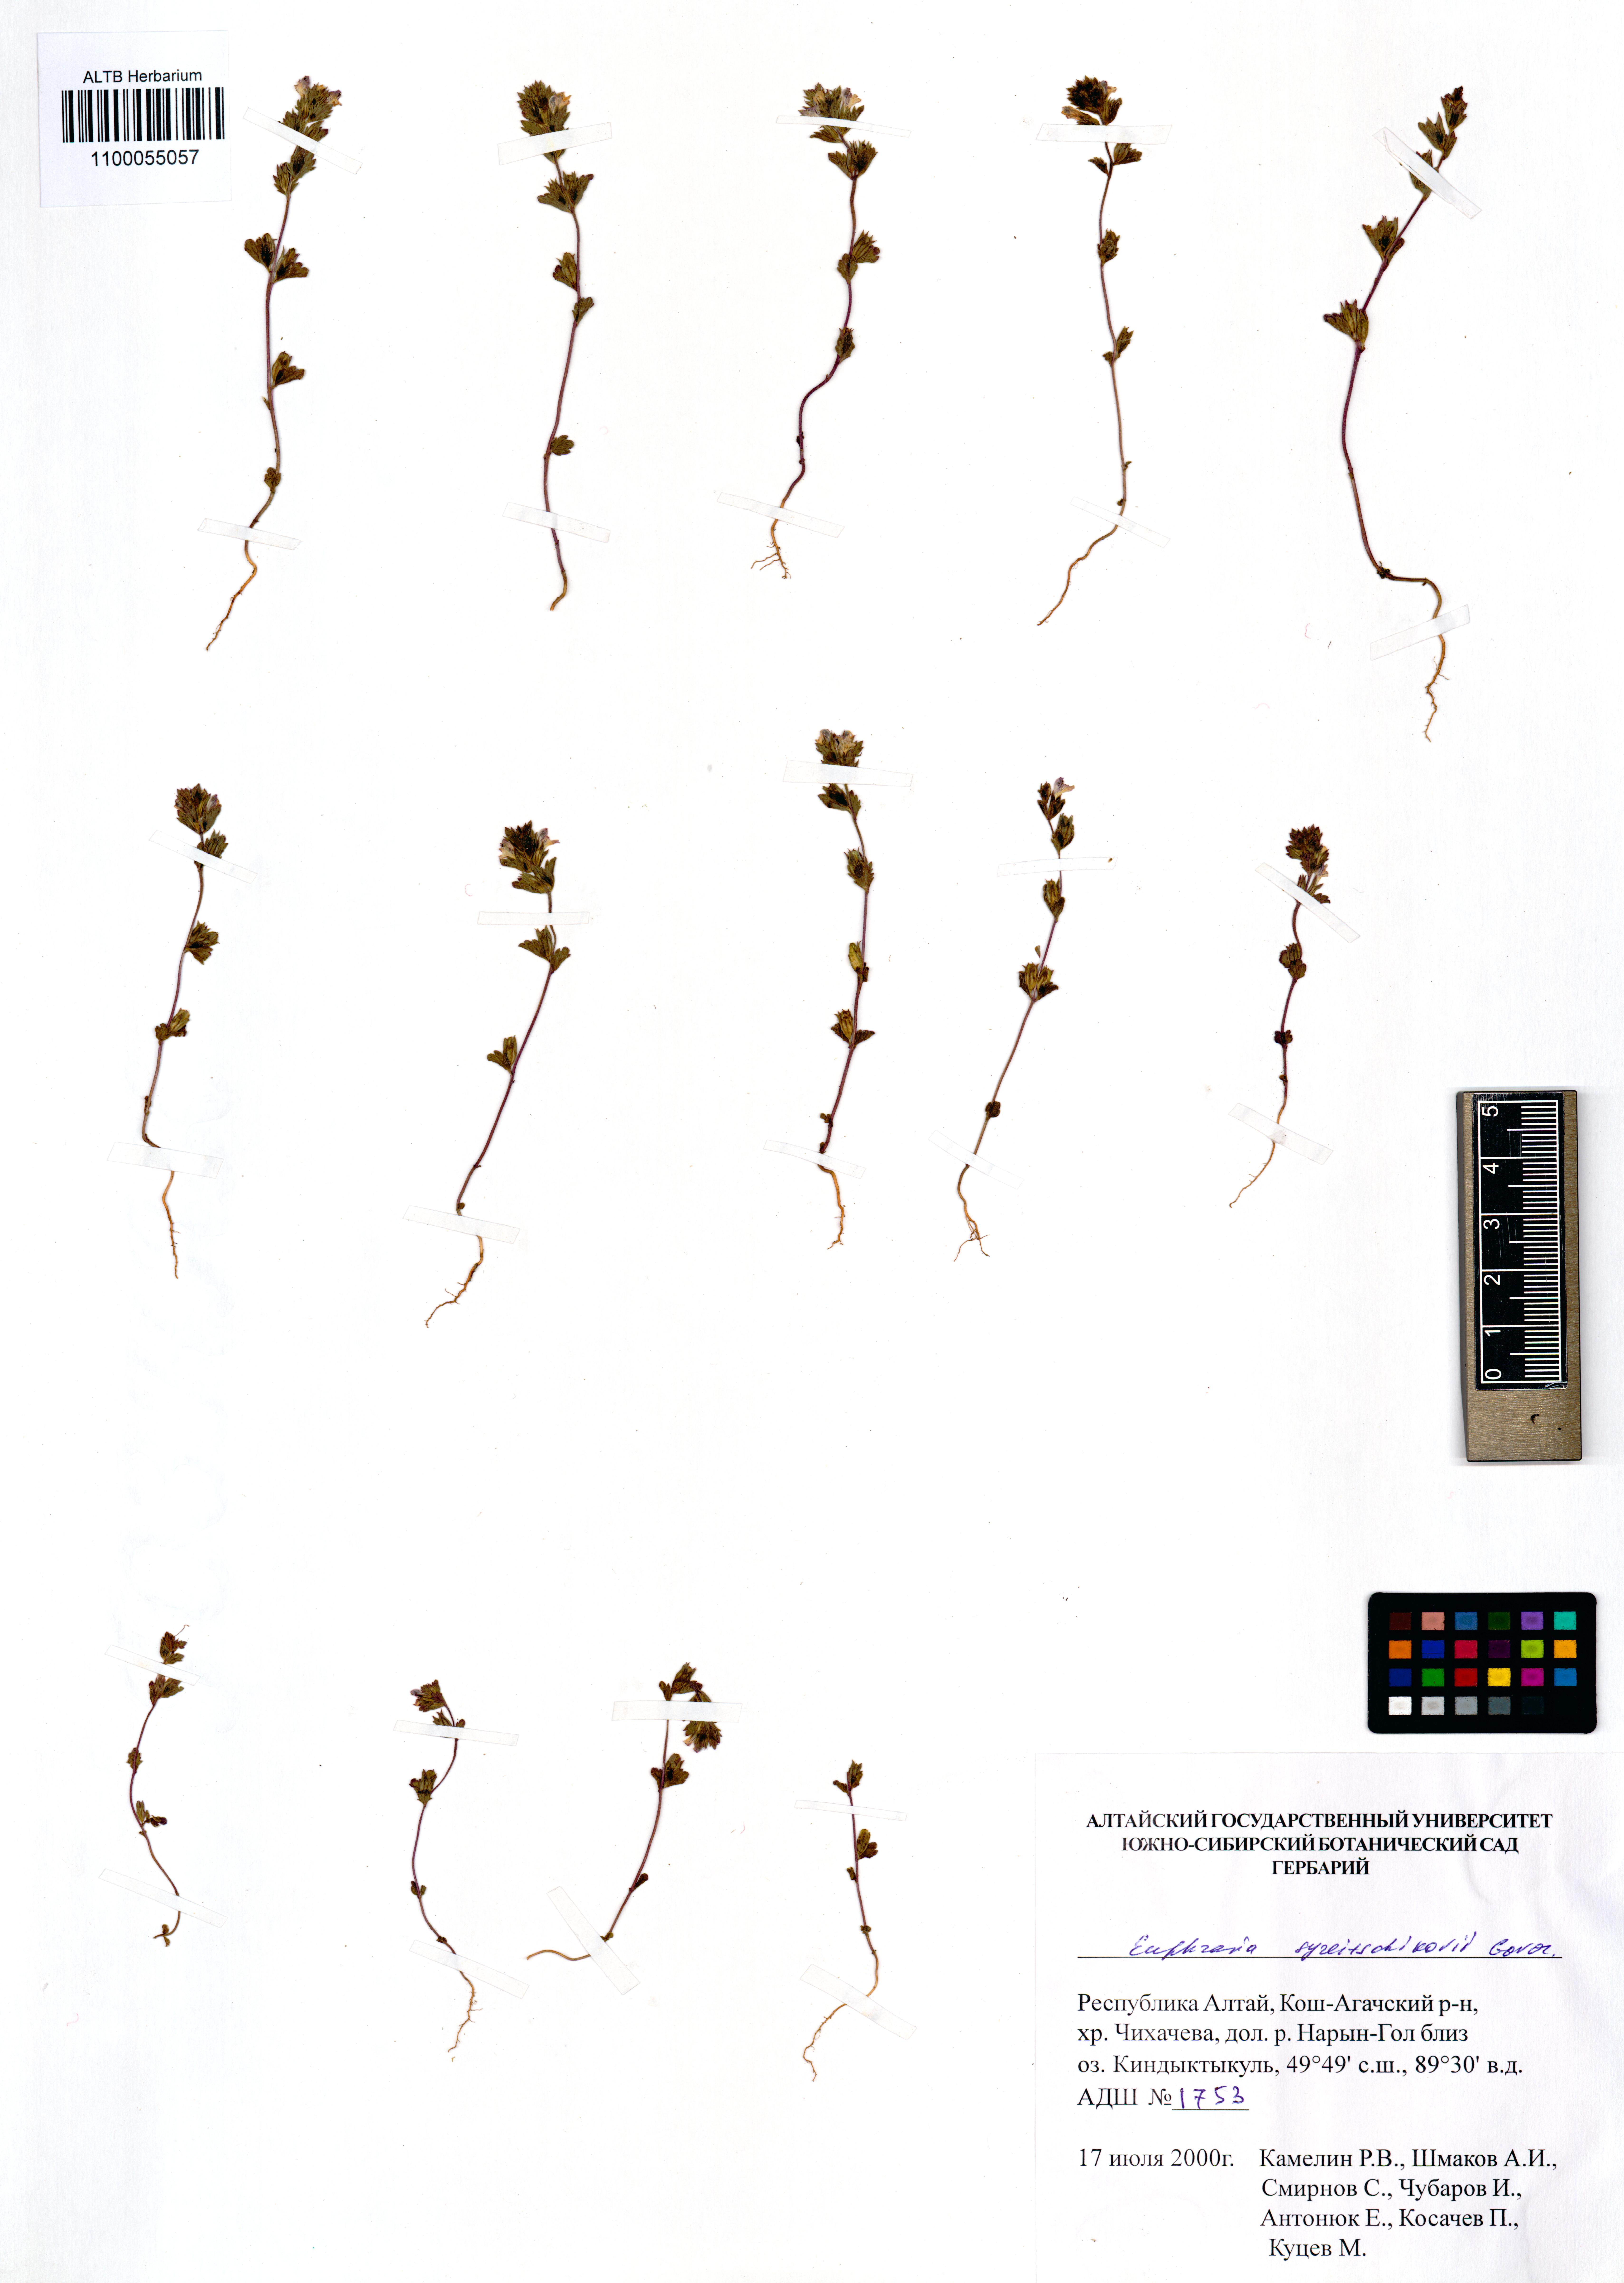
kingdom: Plantae
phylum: Tracheophyta
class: Magnoliopsida
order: Lamiales
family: Orobanchaceae
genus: Euphrasia
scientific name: Euphrasia syreitschikovii
